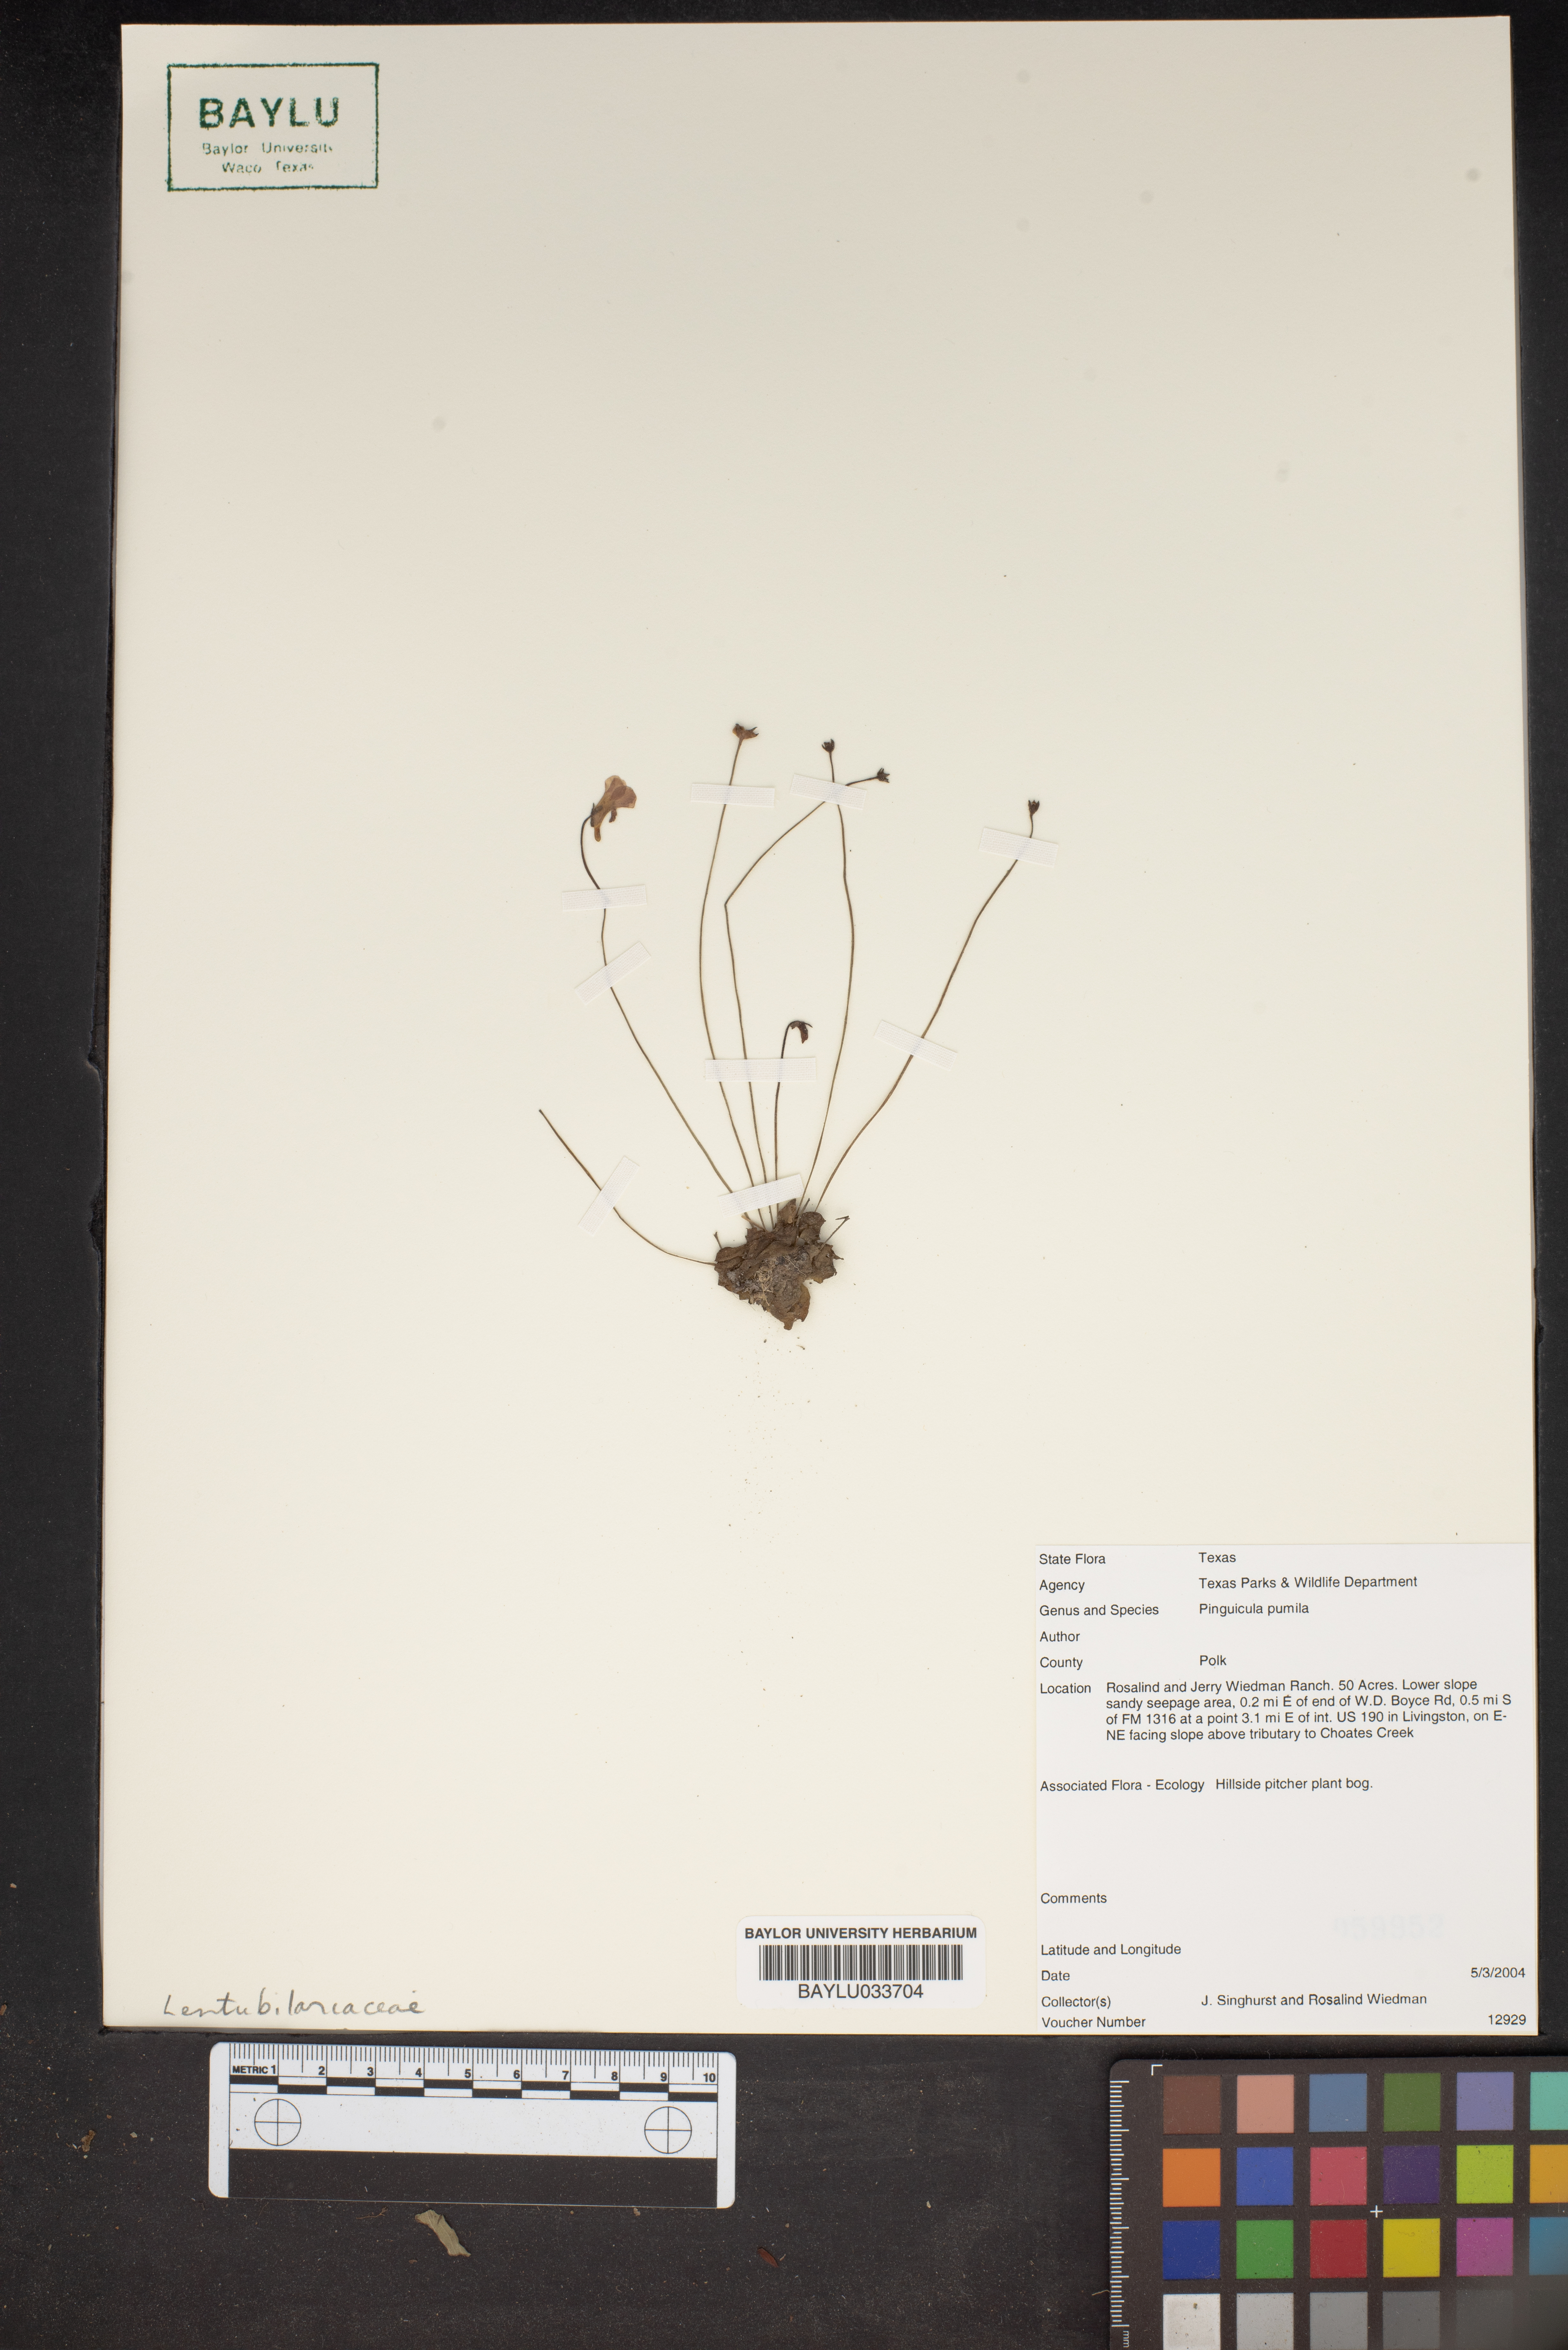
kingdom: Plantae
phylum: Tracheophyta
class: Magnoliopsida
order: Lamiales
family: Lentibulariaceae
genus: Pinguicula
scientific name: Pinguicula pumila
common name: Small butterwort
